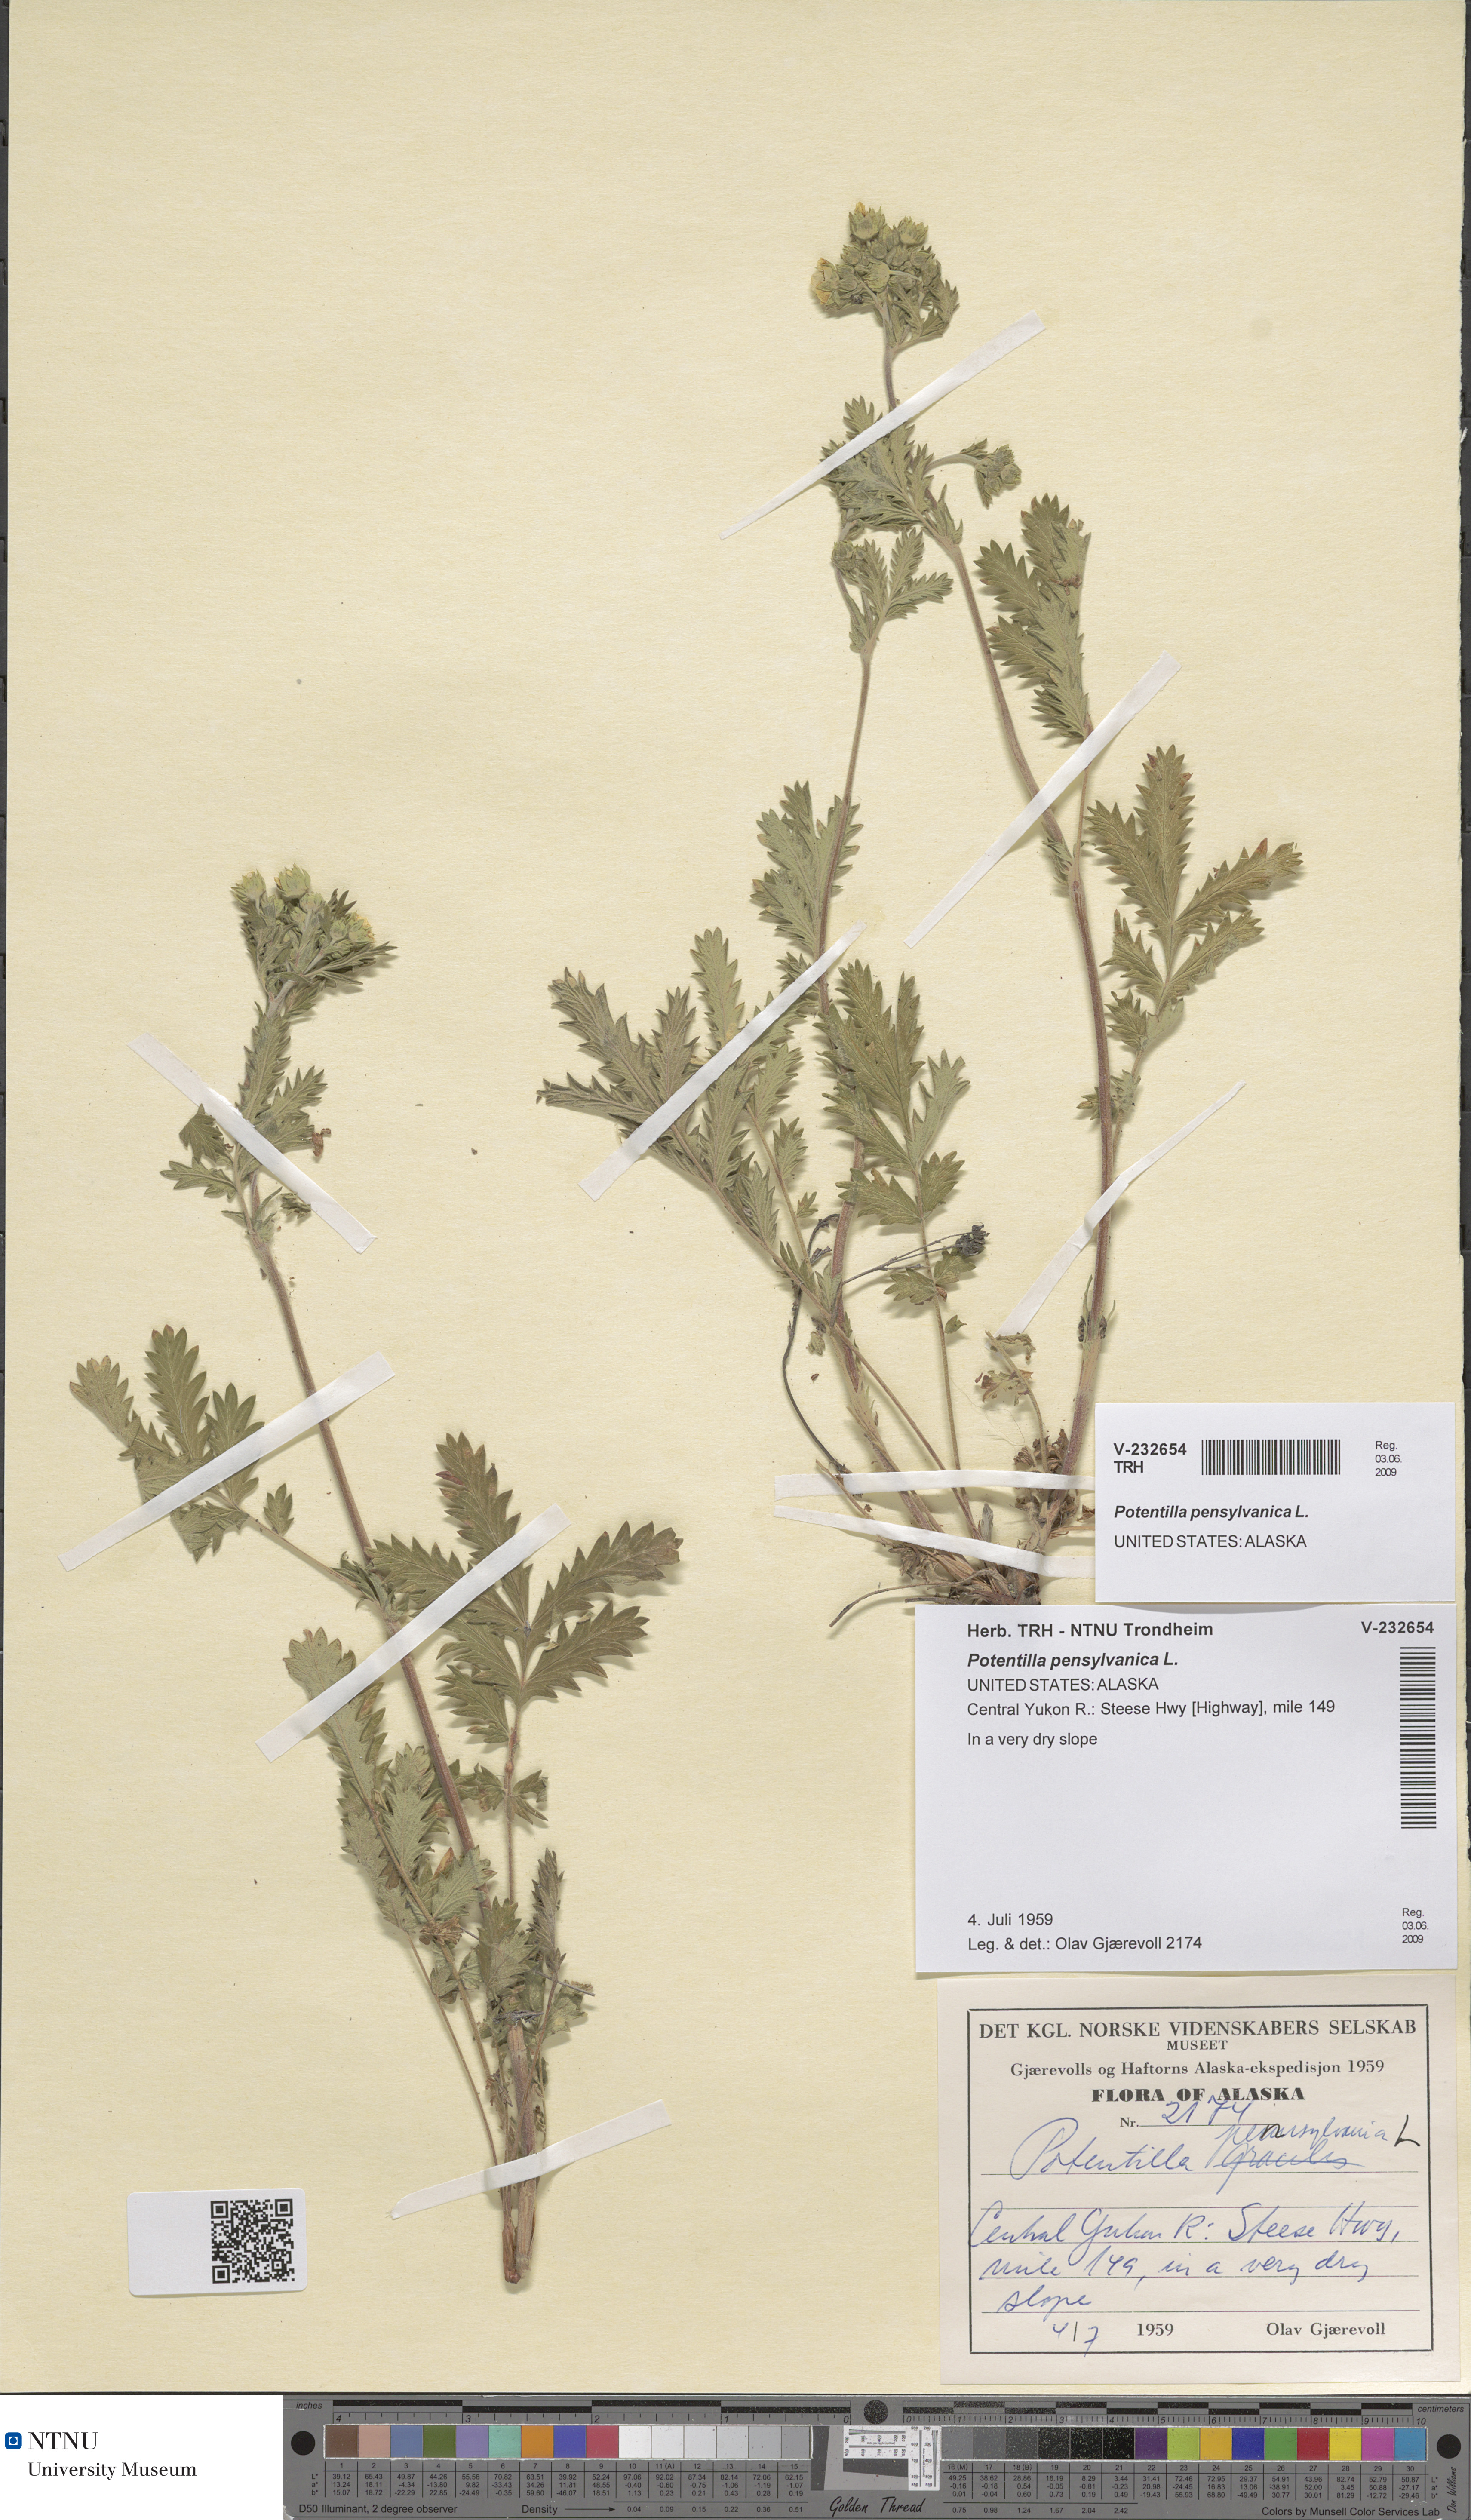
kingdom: Plantae
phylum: Tracheophyta
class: Magnoliopsida
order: Rosales
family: Rosaceae
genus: Potentilla
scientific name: Potentilla pensylvanica
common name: Pennsylvania cinquefoil
